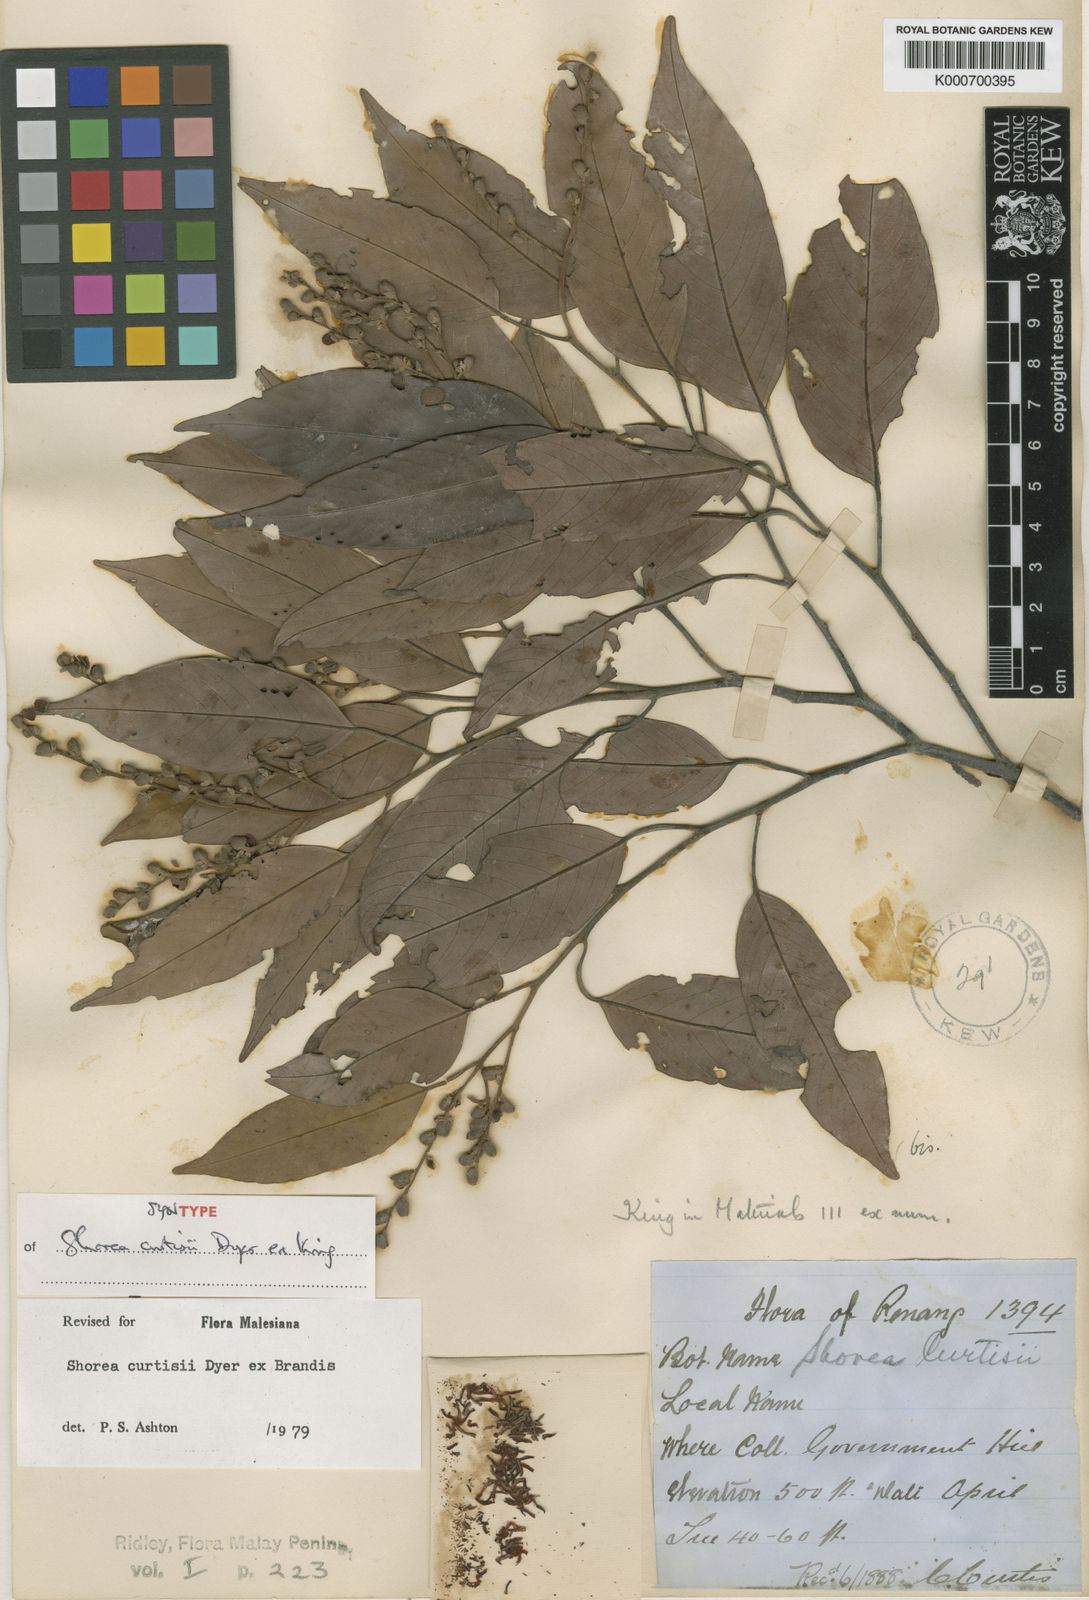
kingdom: Plantae
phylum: Tracheophyta
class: Magnoliopsida
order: Malvales
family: Dipterocarpaceae
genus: Shorea
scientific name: Shorea curtisii
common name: Dark red meranti
